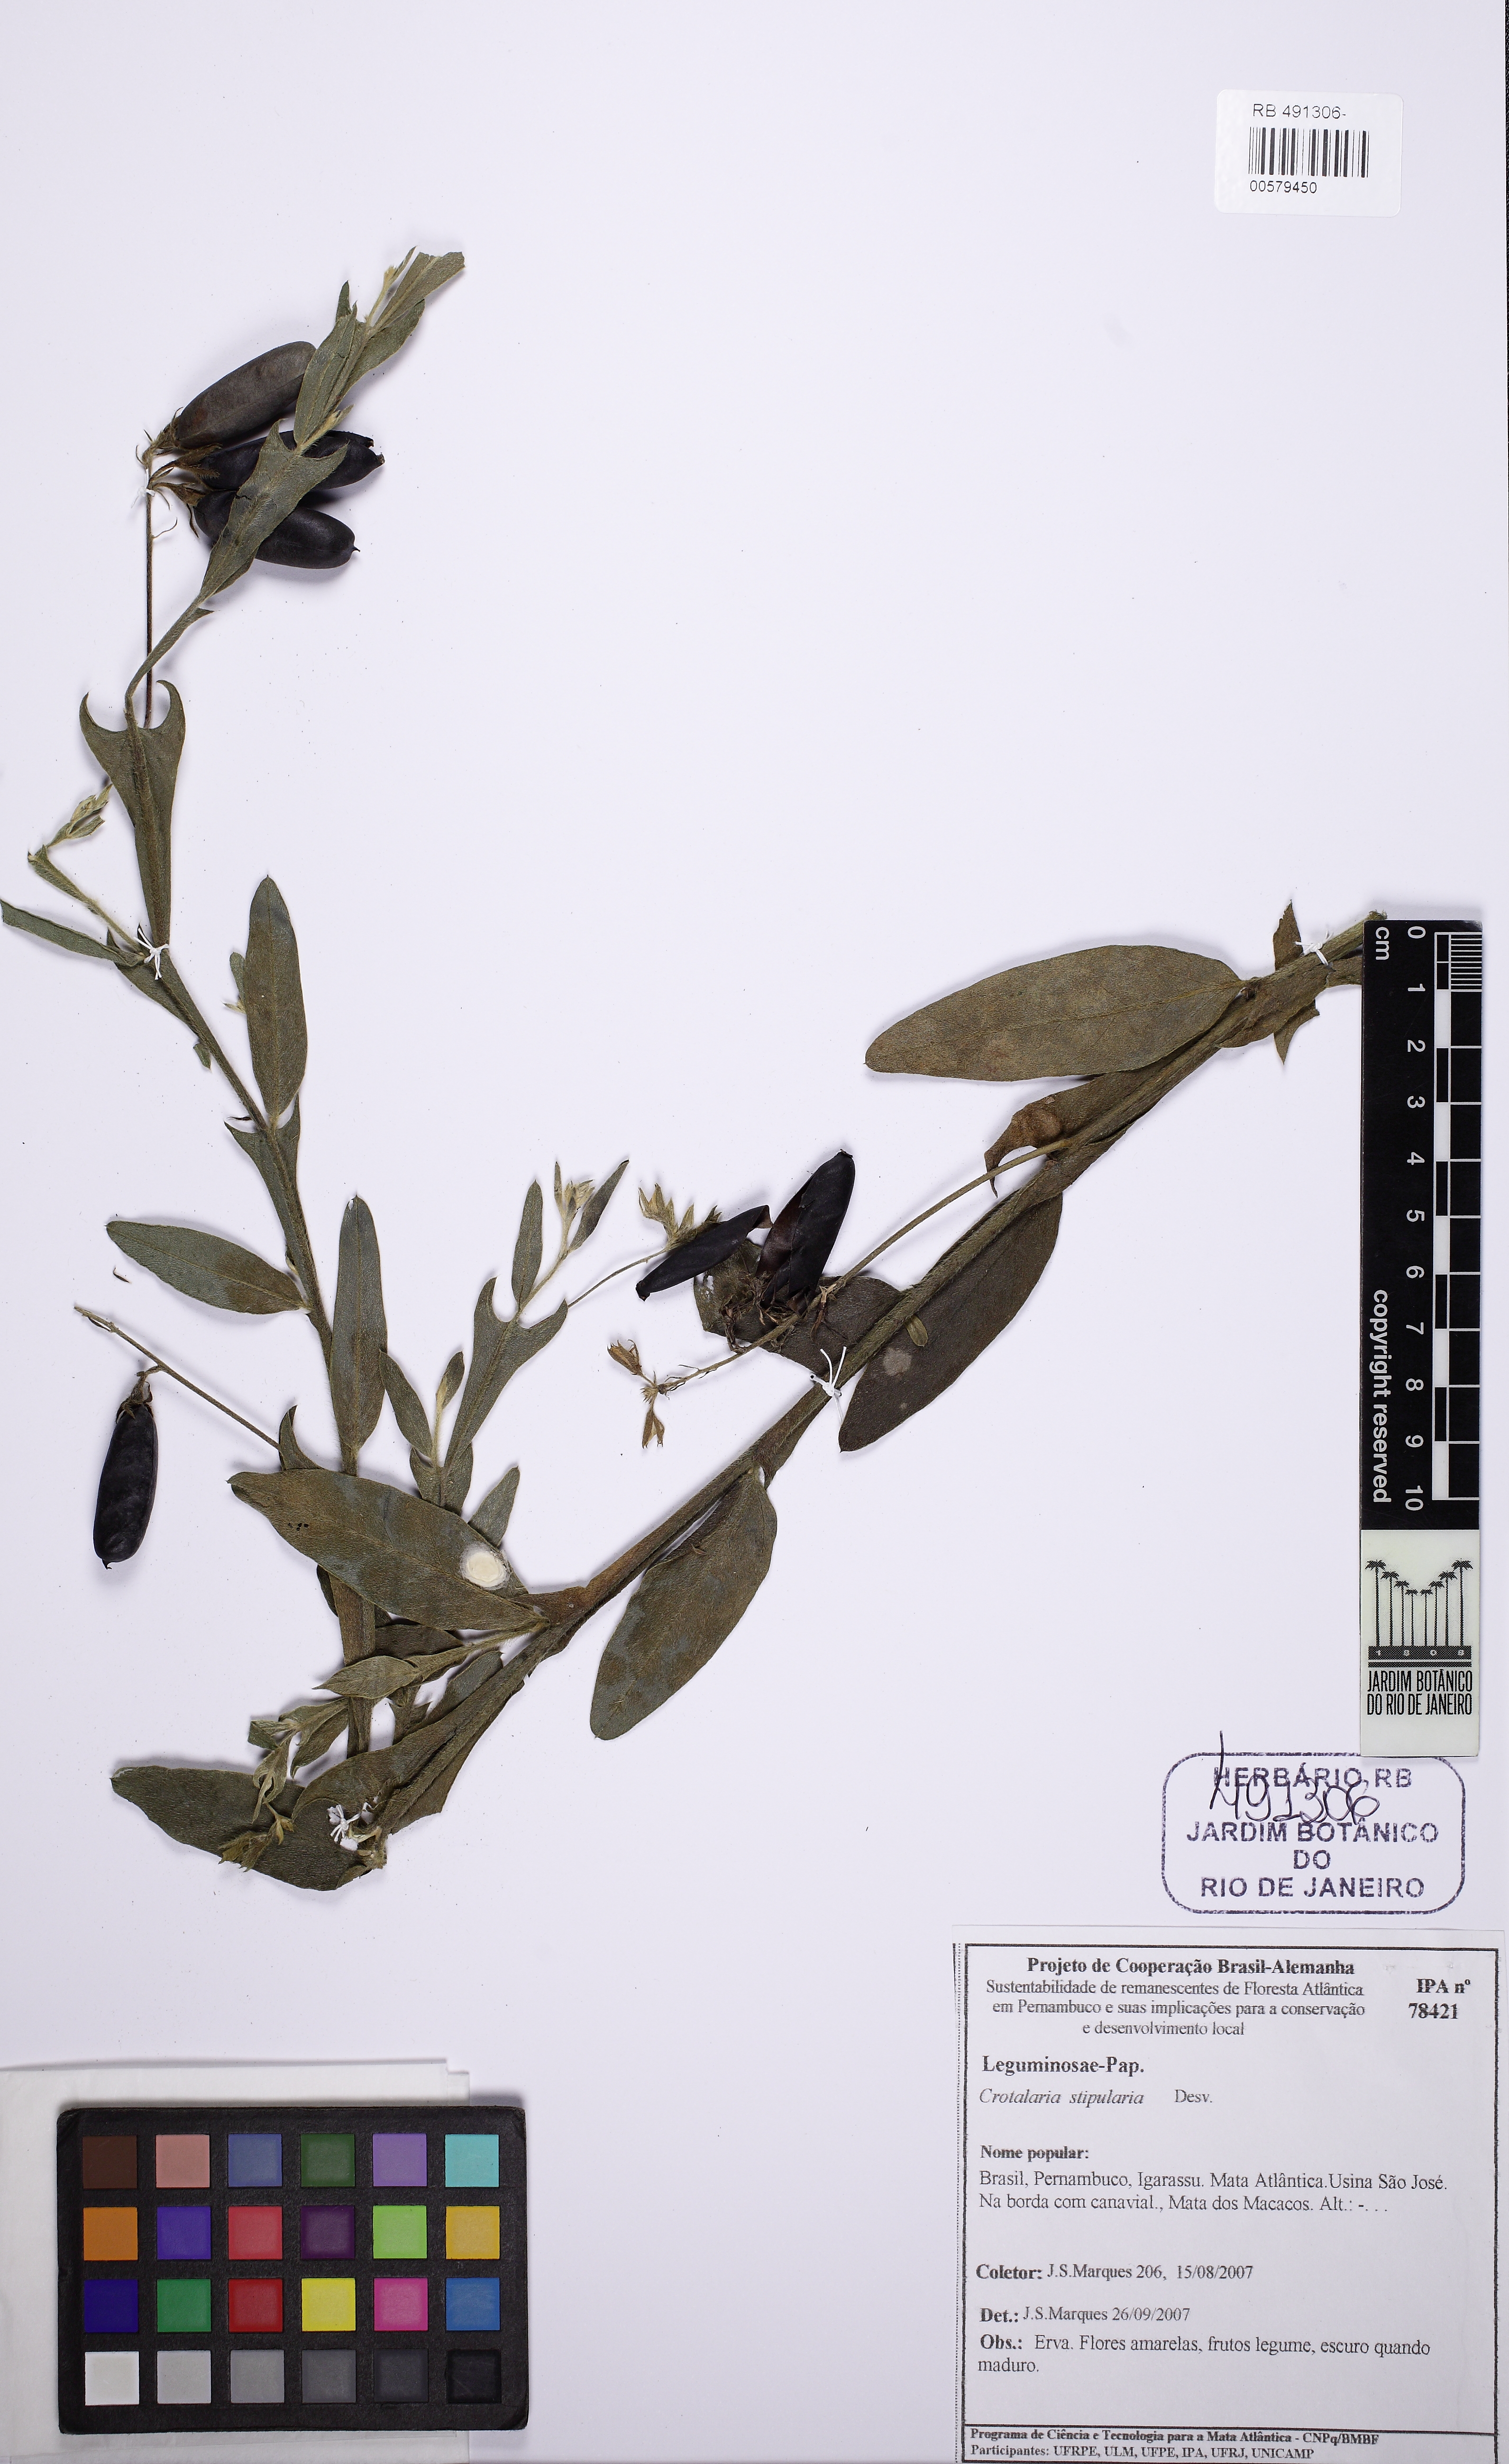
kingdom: Plantae
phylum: Tracheophyta
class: Magnoliopsida
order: Fabales
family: Fabaceae
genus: Crotalaria
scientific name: Crotalaria stipularia
